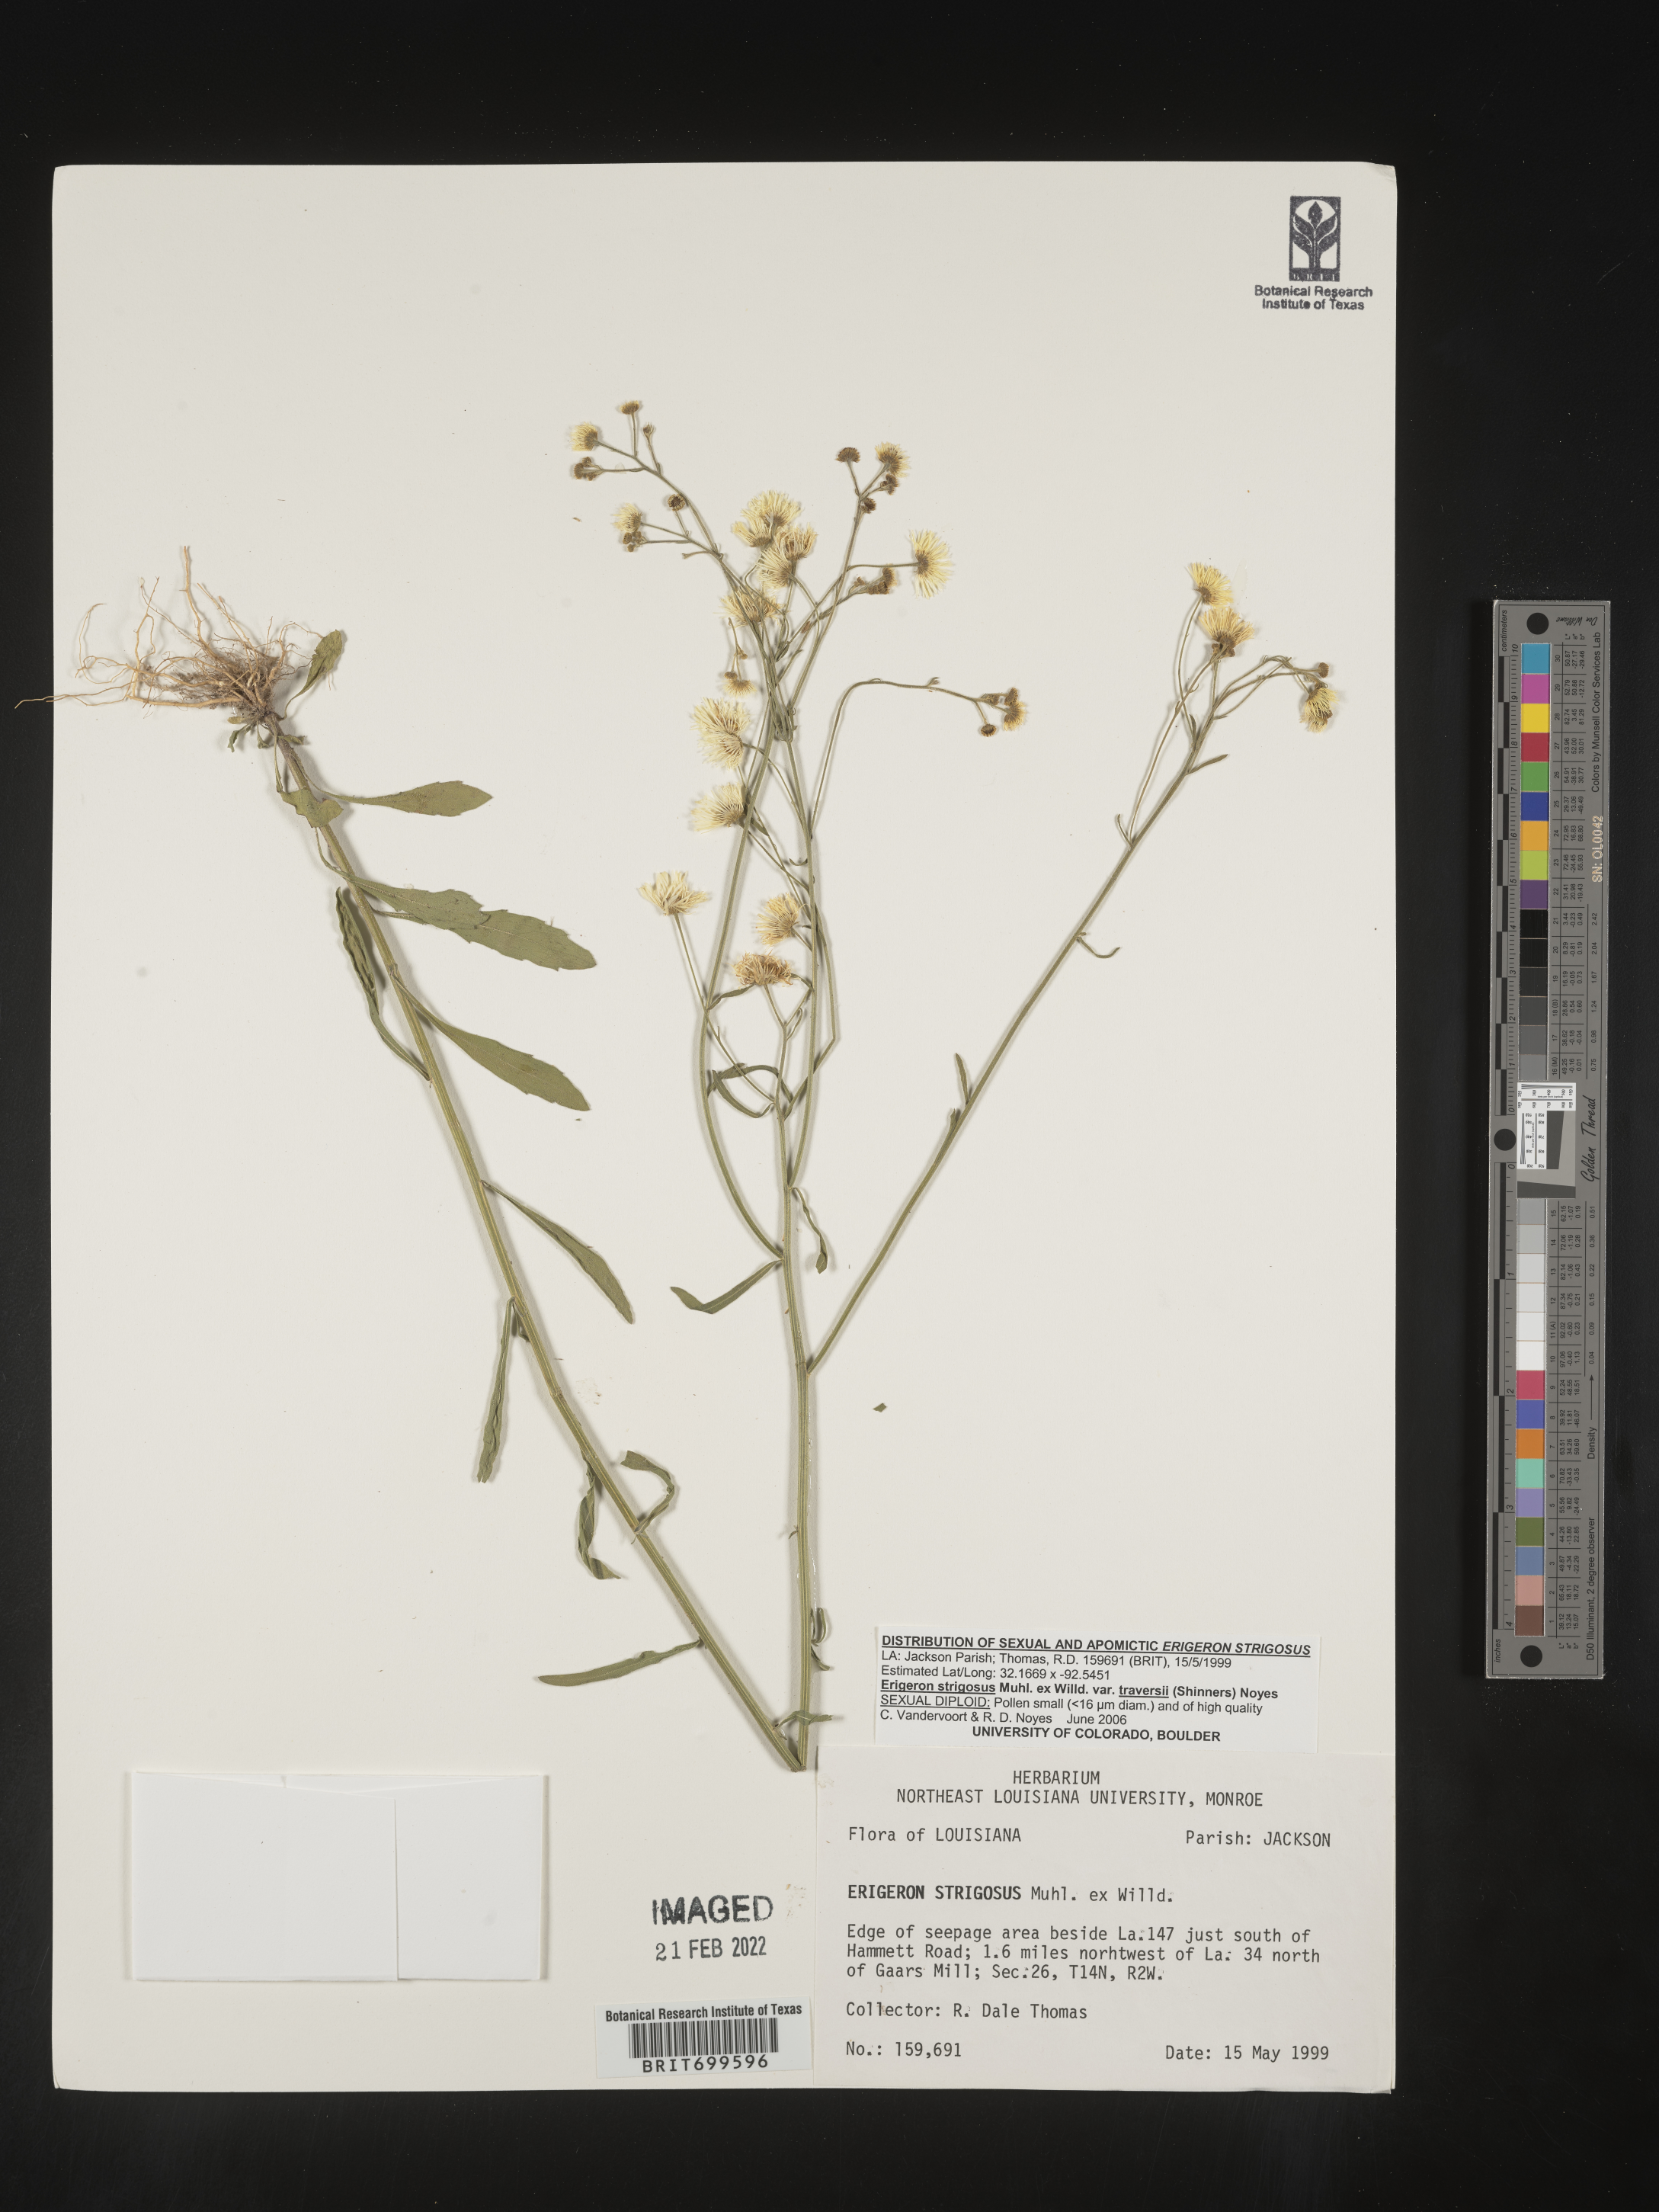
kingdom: Plantae
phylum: Tracheophyta
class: Magnoliopsida
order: Asterales
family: Asteraceae
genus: Erigeron
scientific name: Erigeron strigosus
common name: Common eastern fleabane
